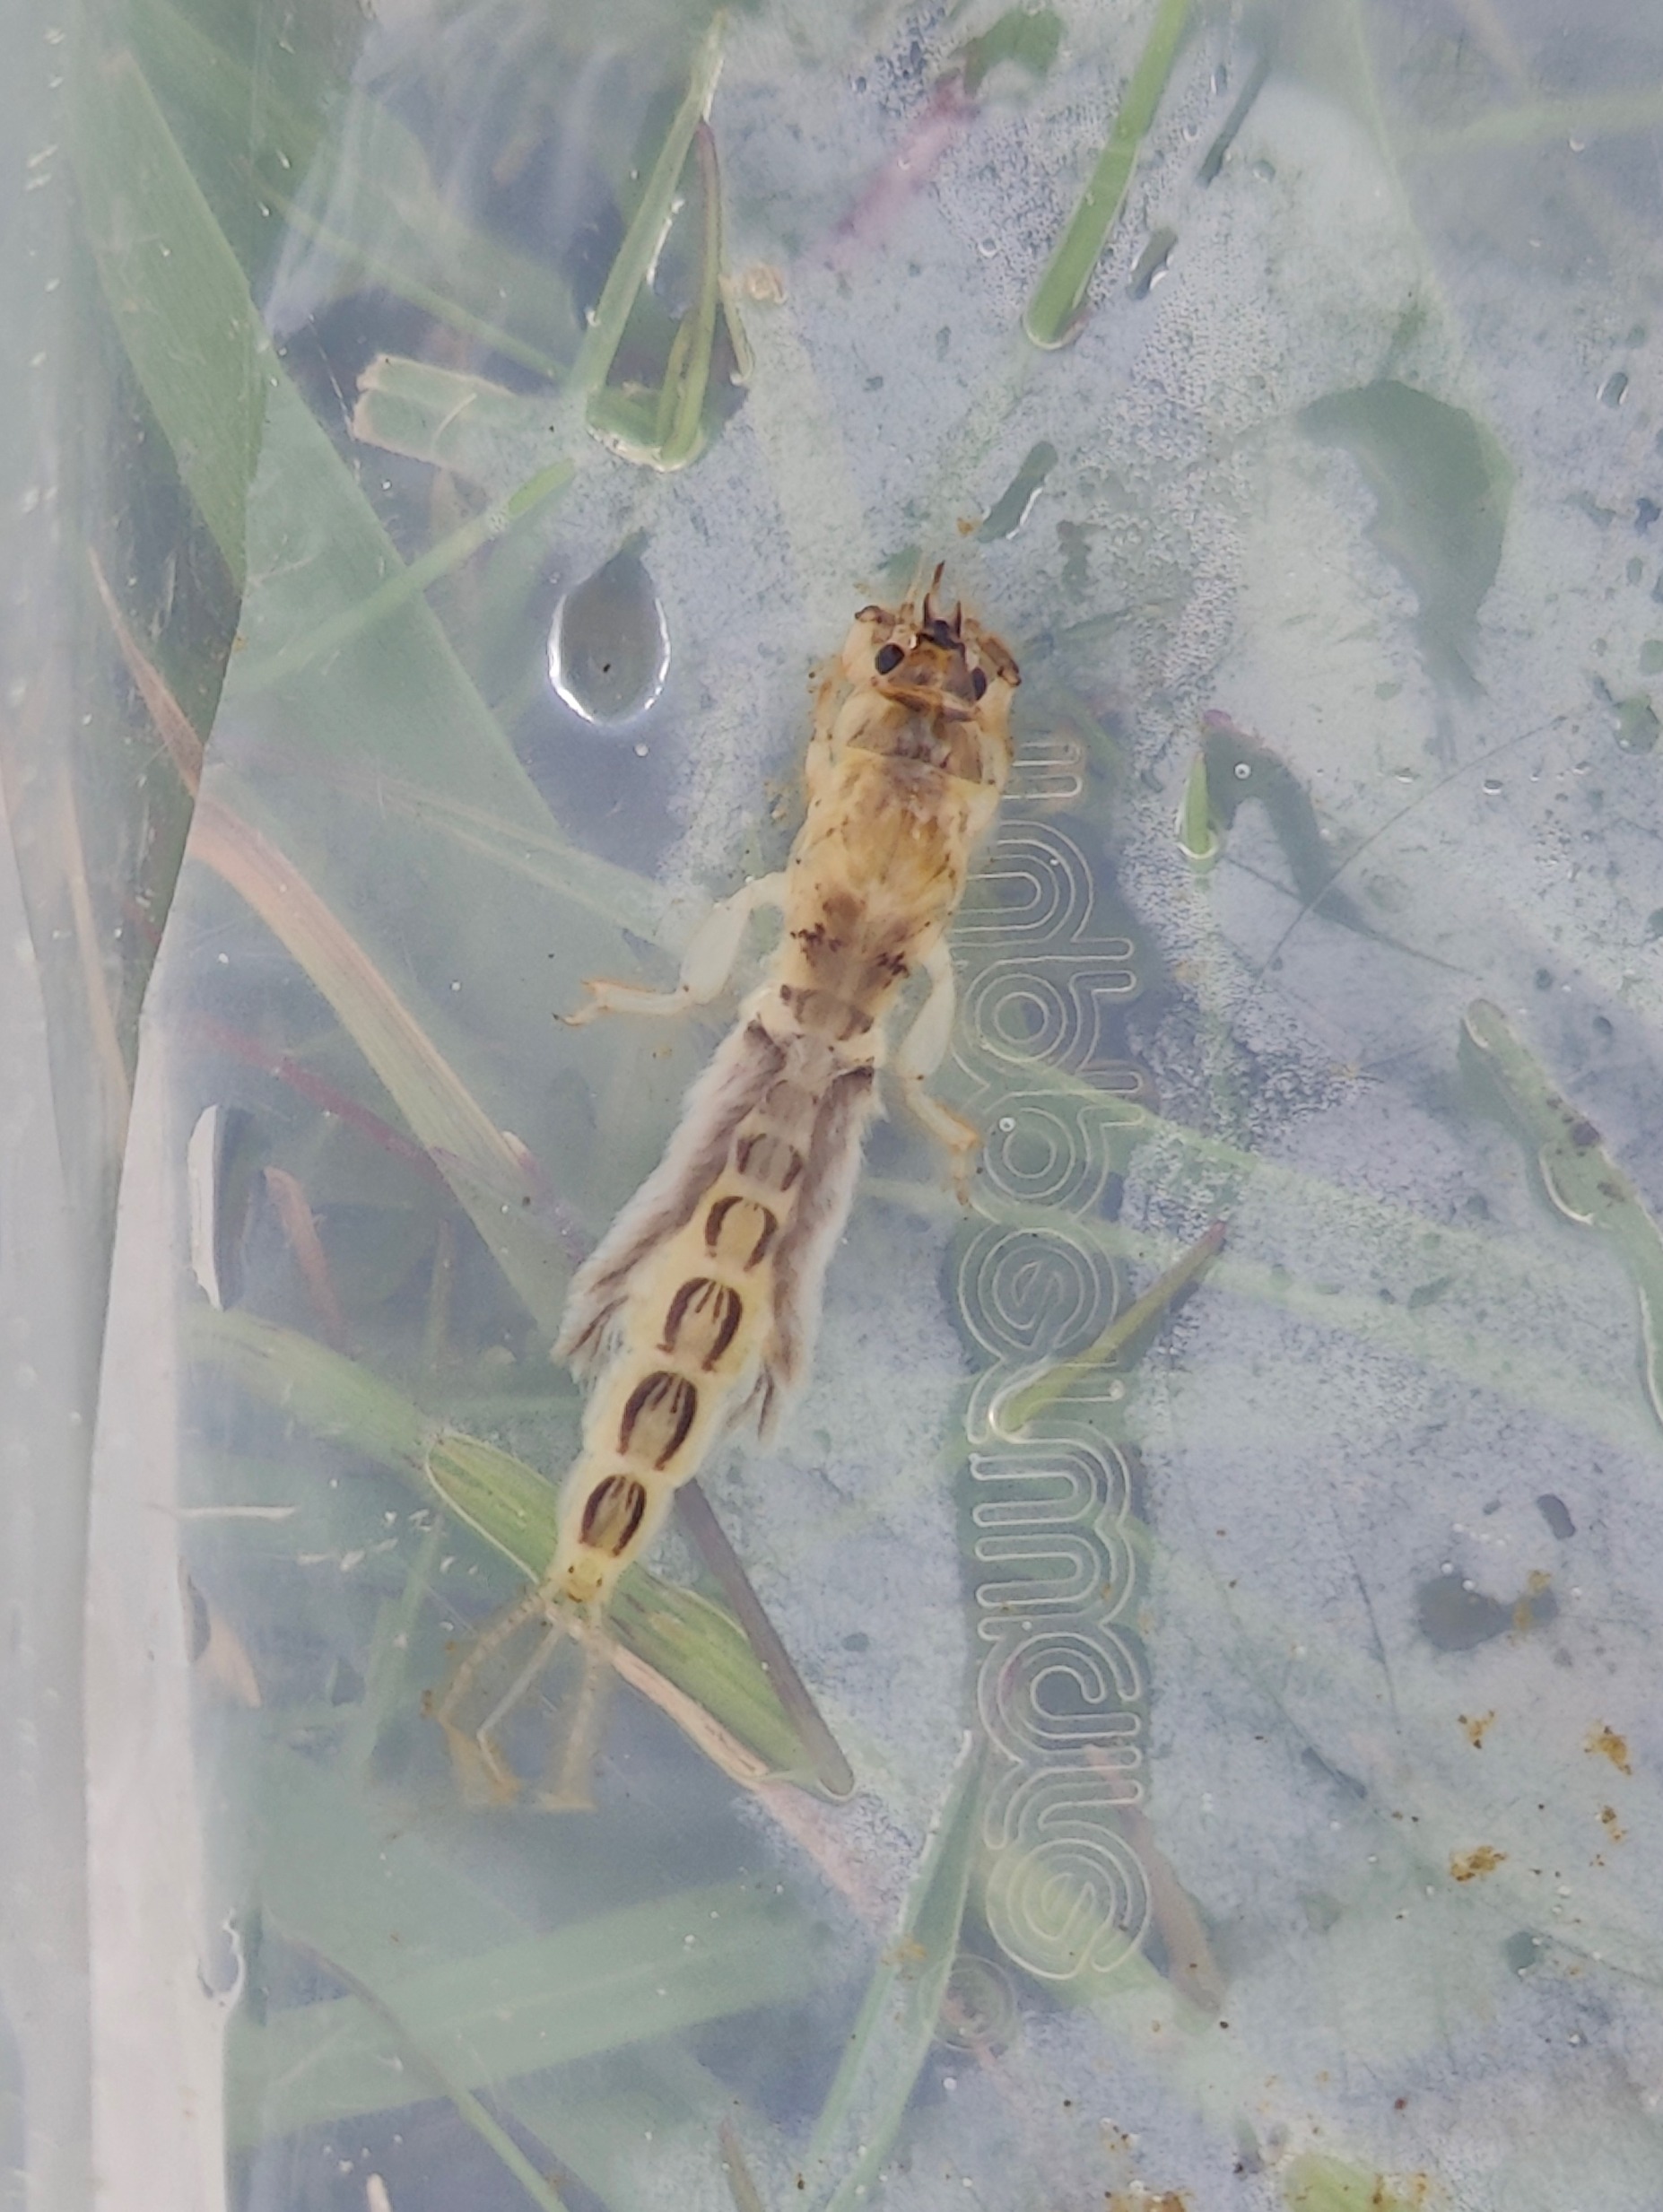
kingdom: Animalia
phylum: Arthropoda
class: Insecta
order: Ephemeroptera
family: Ephemeridae
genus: Ephemera
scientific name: Ephemera vulgata
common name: Sø-majflue
